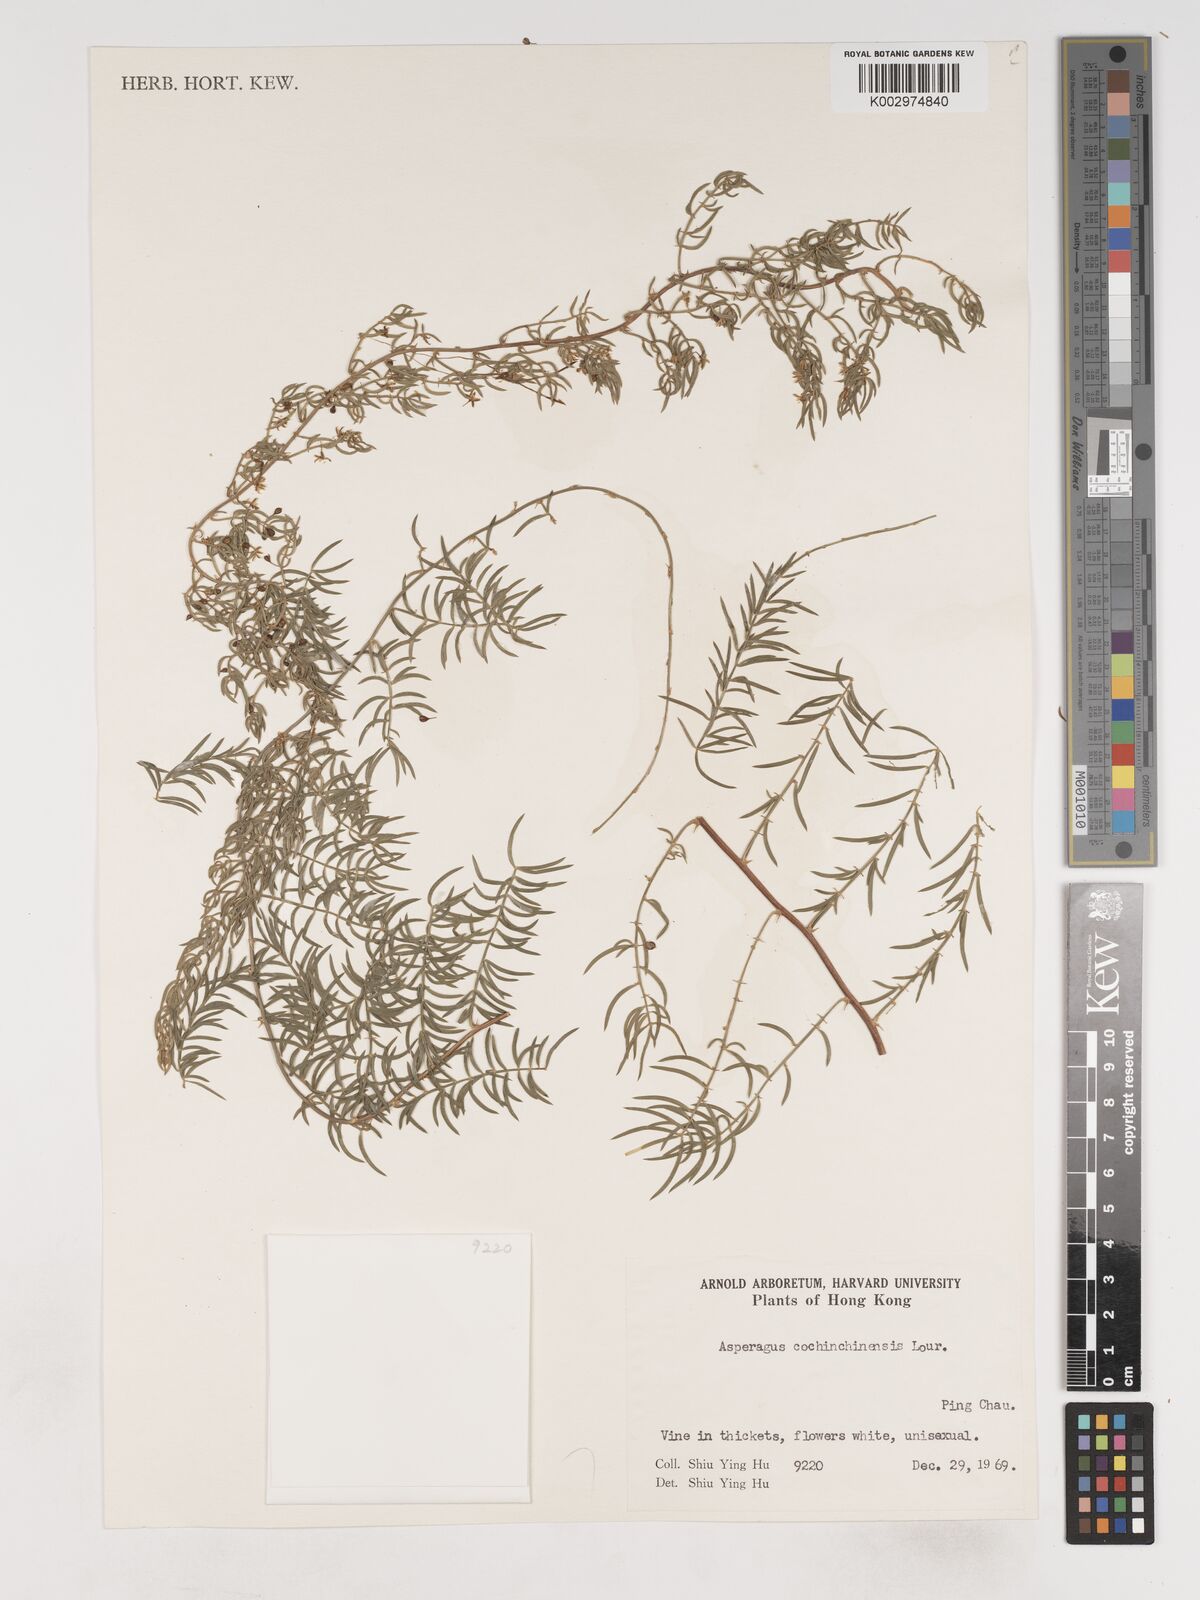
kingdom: Plantae
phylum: Tracheophyta
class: Liliopsida
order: Asparagales
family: Asparagaceae
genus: Asparagus
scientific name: Asparagus cochinchinensis
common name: Chinese asparagus
